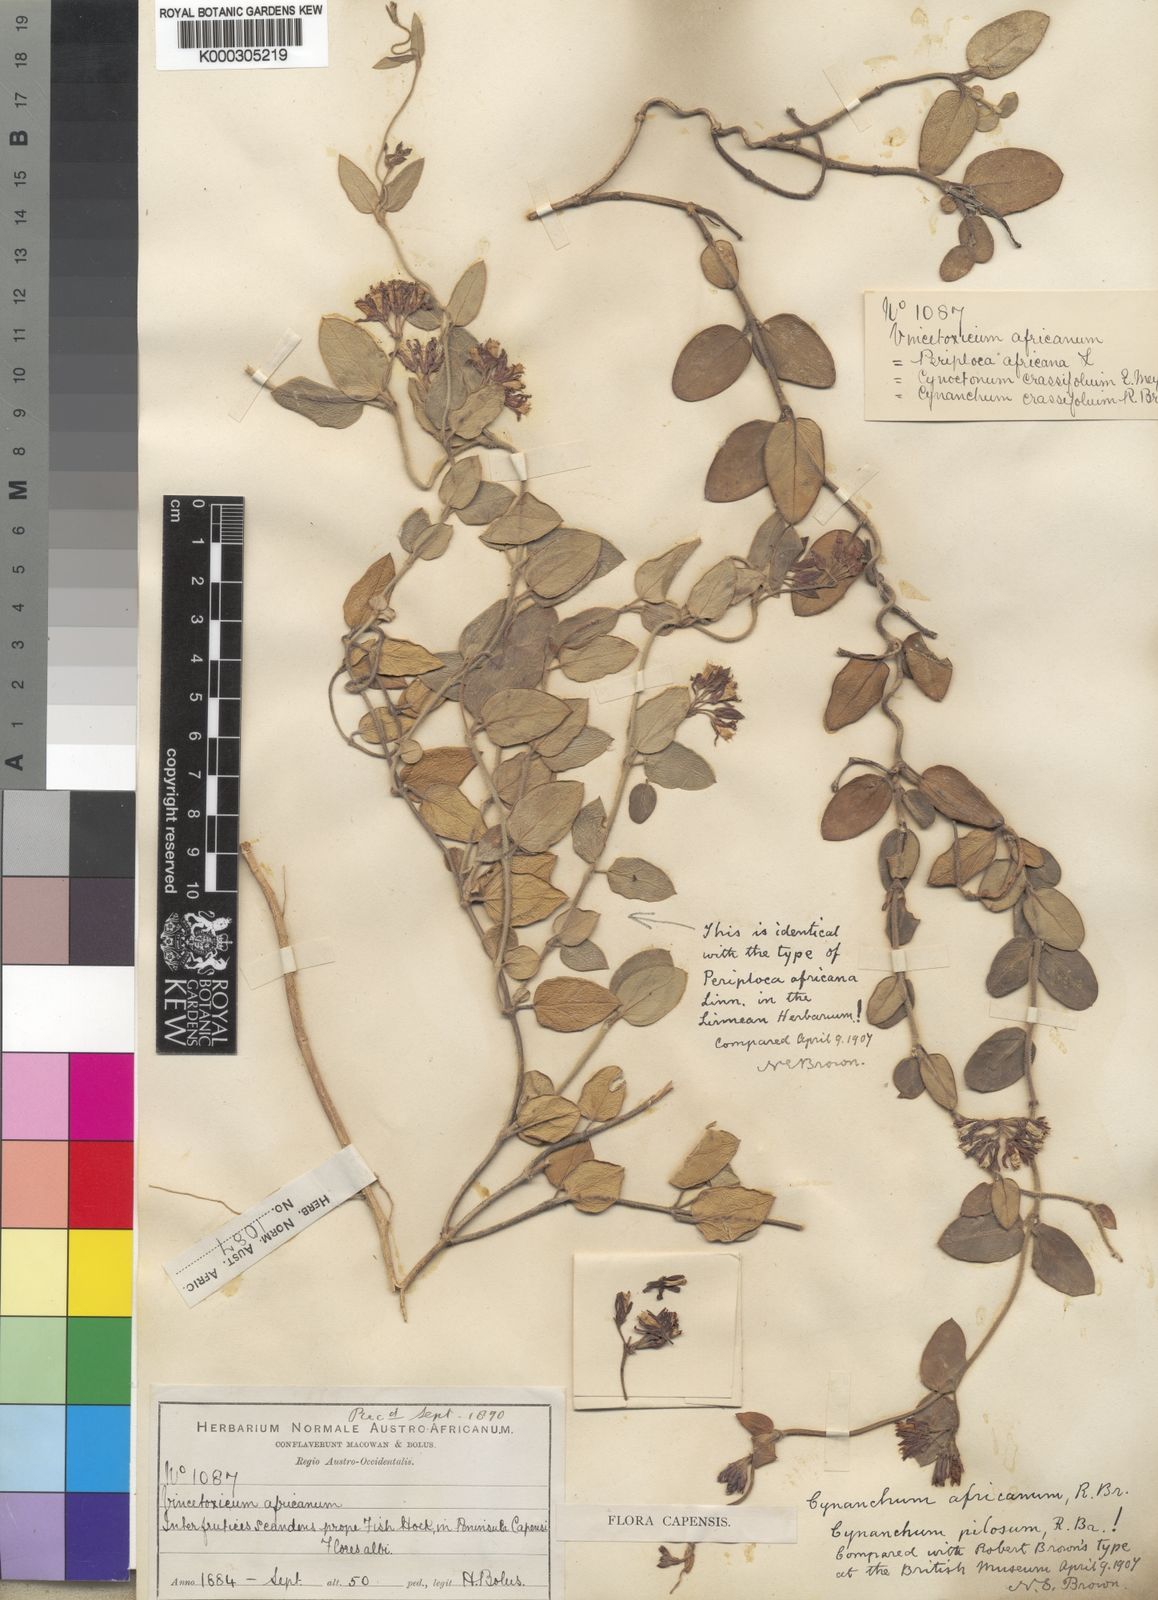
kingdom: Plantae
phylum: Tracheophyta
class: Magnoliopsida
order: Gentianales
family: Apocynaceae
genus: Cynanchum
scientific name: Cynanchum africanum
